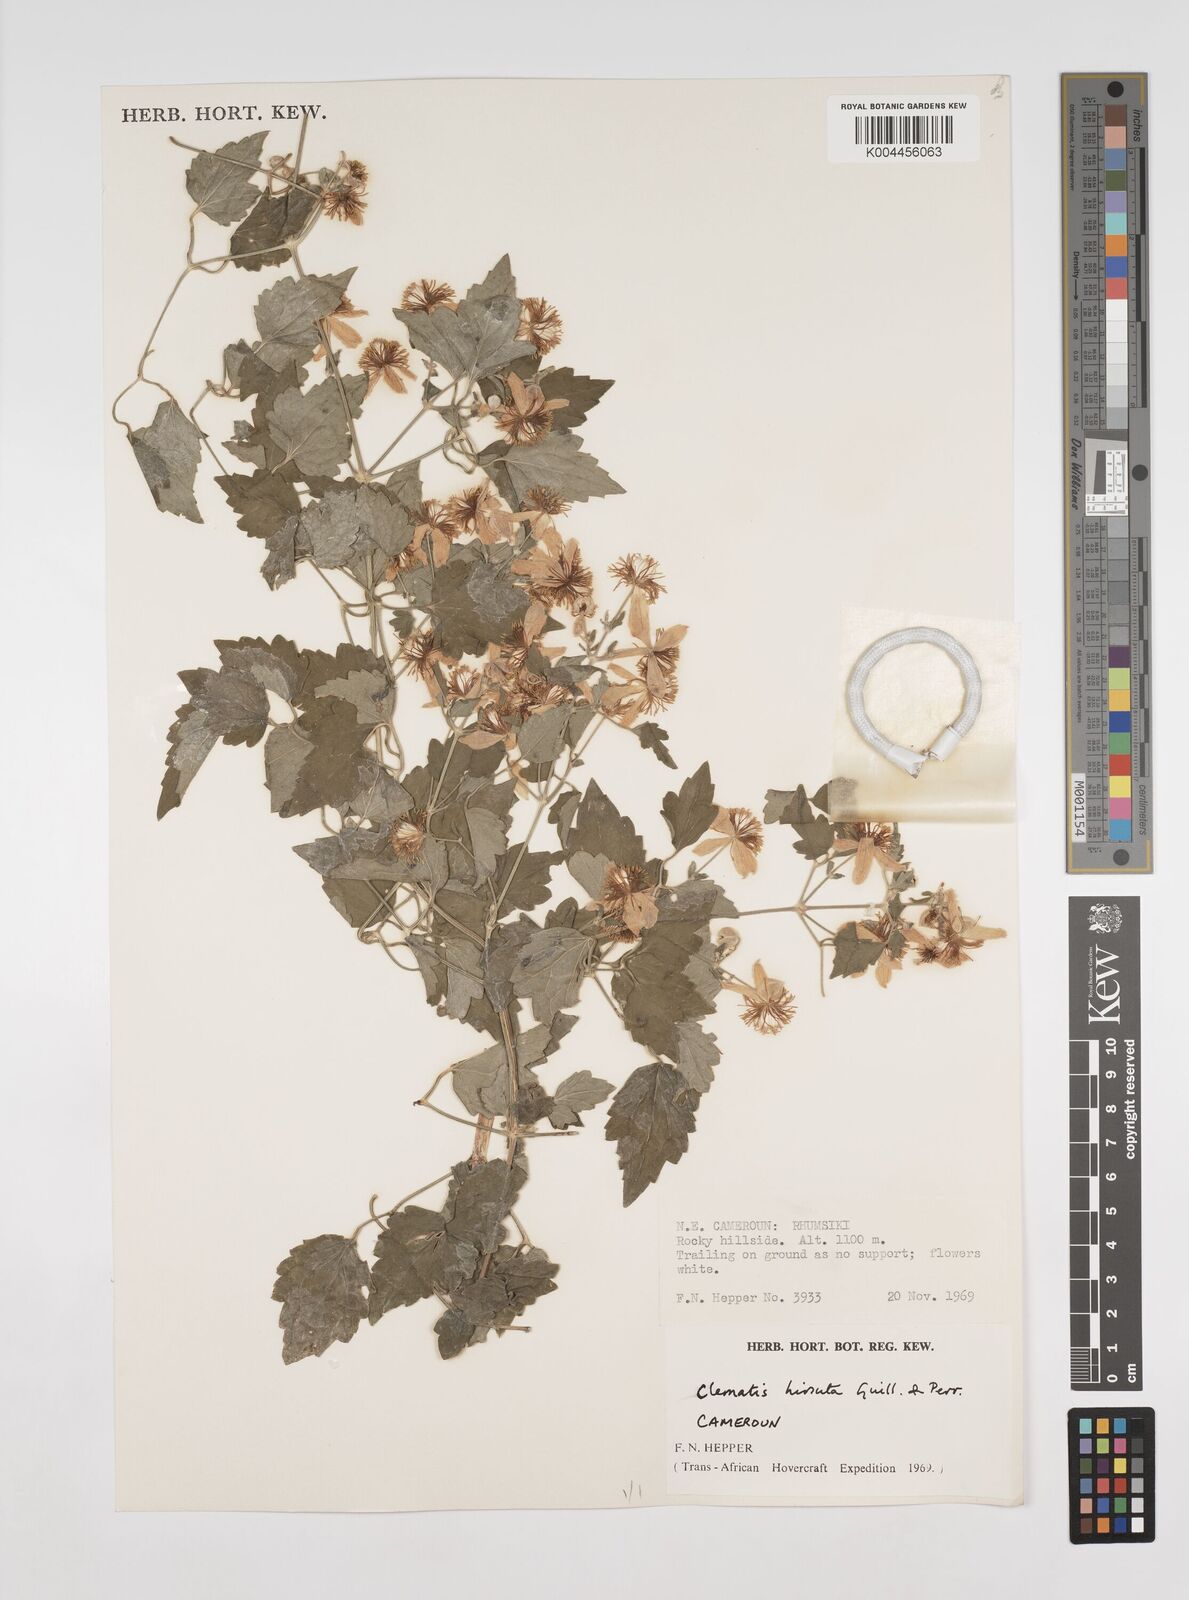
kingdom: Plantae
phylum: Tracheophyta
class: Magnoliopsida
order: Ranunculales
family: Ranunculaceae
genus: Clematis
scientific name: Clematis hirsuta
